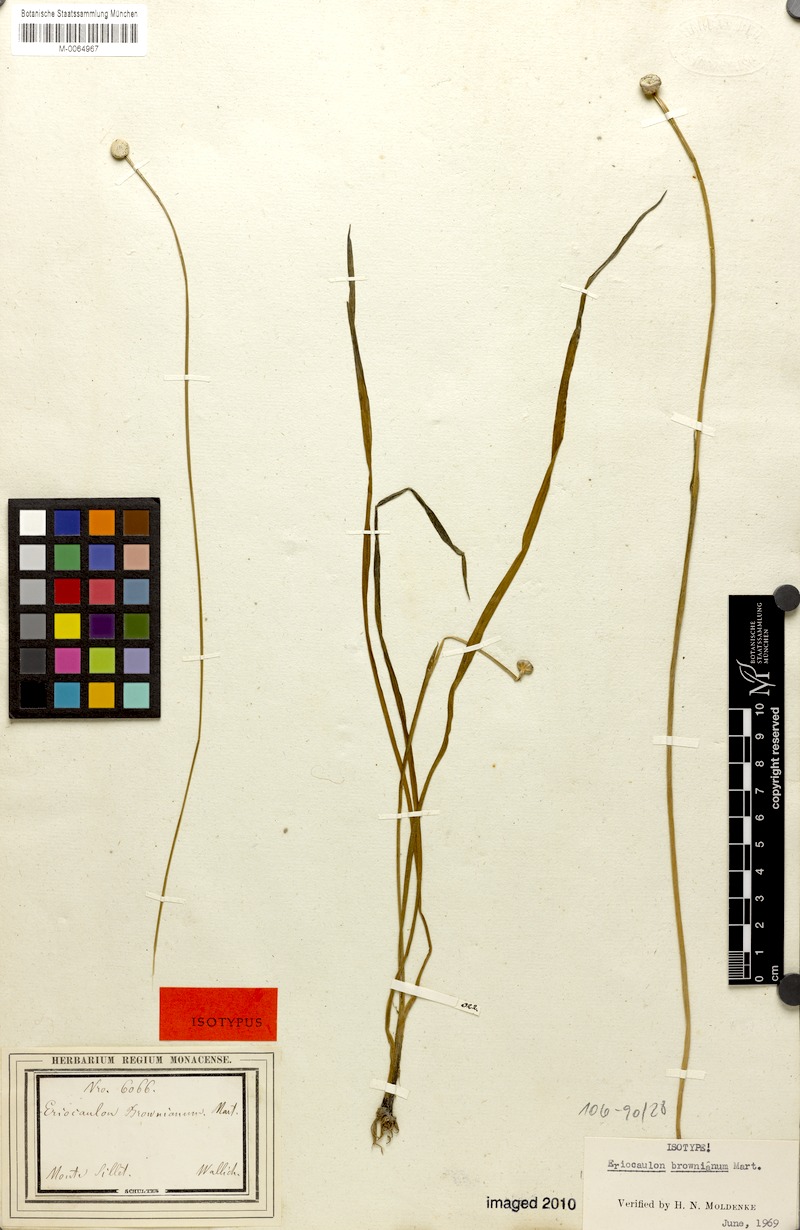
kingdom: Plantae
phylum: Tracheophyta
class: Liliopsida
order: Poales
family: Eriocaulaceae
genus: Eriocaulon
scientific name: Eriocaulon brownianum
